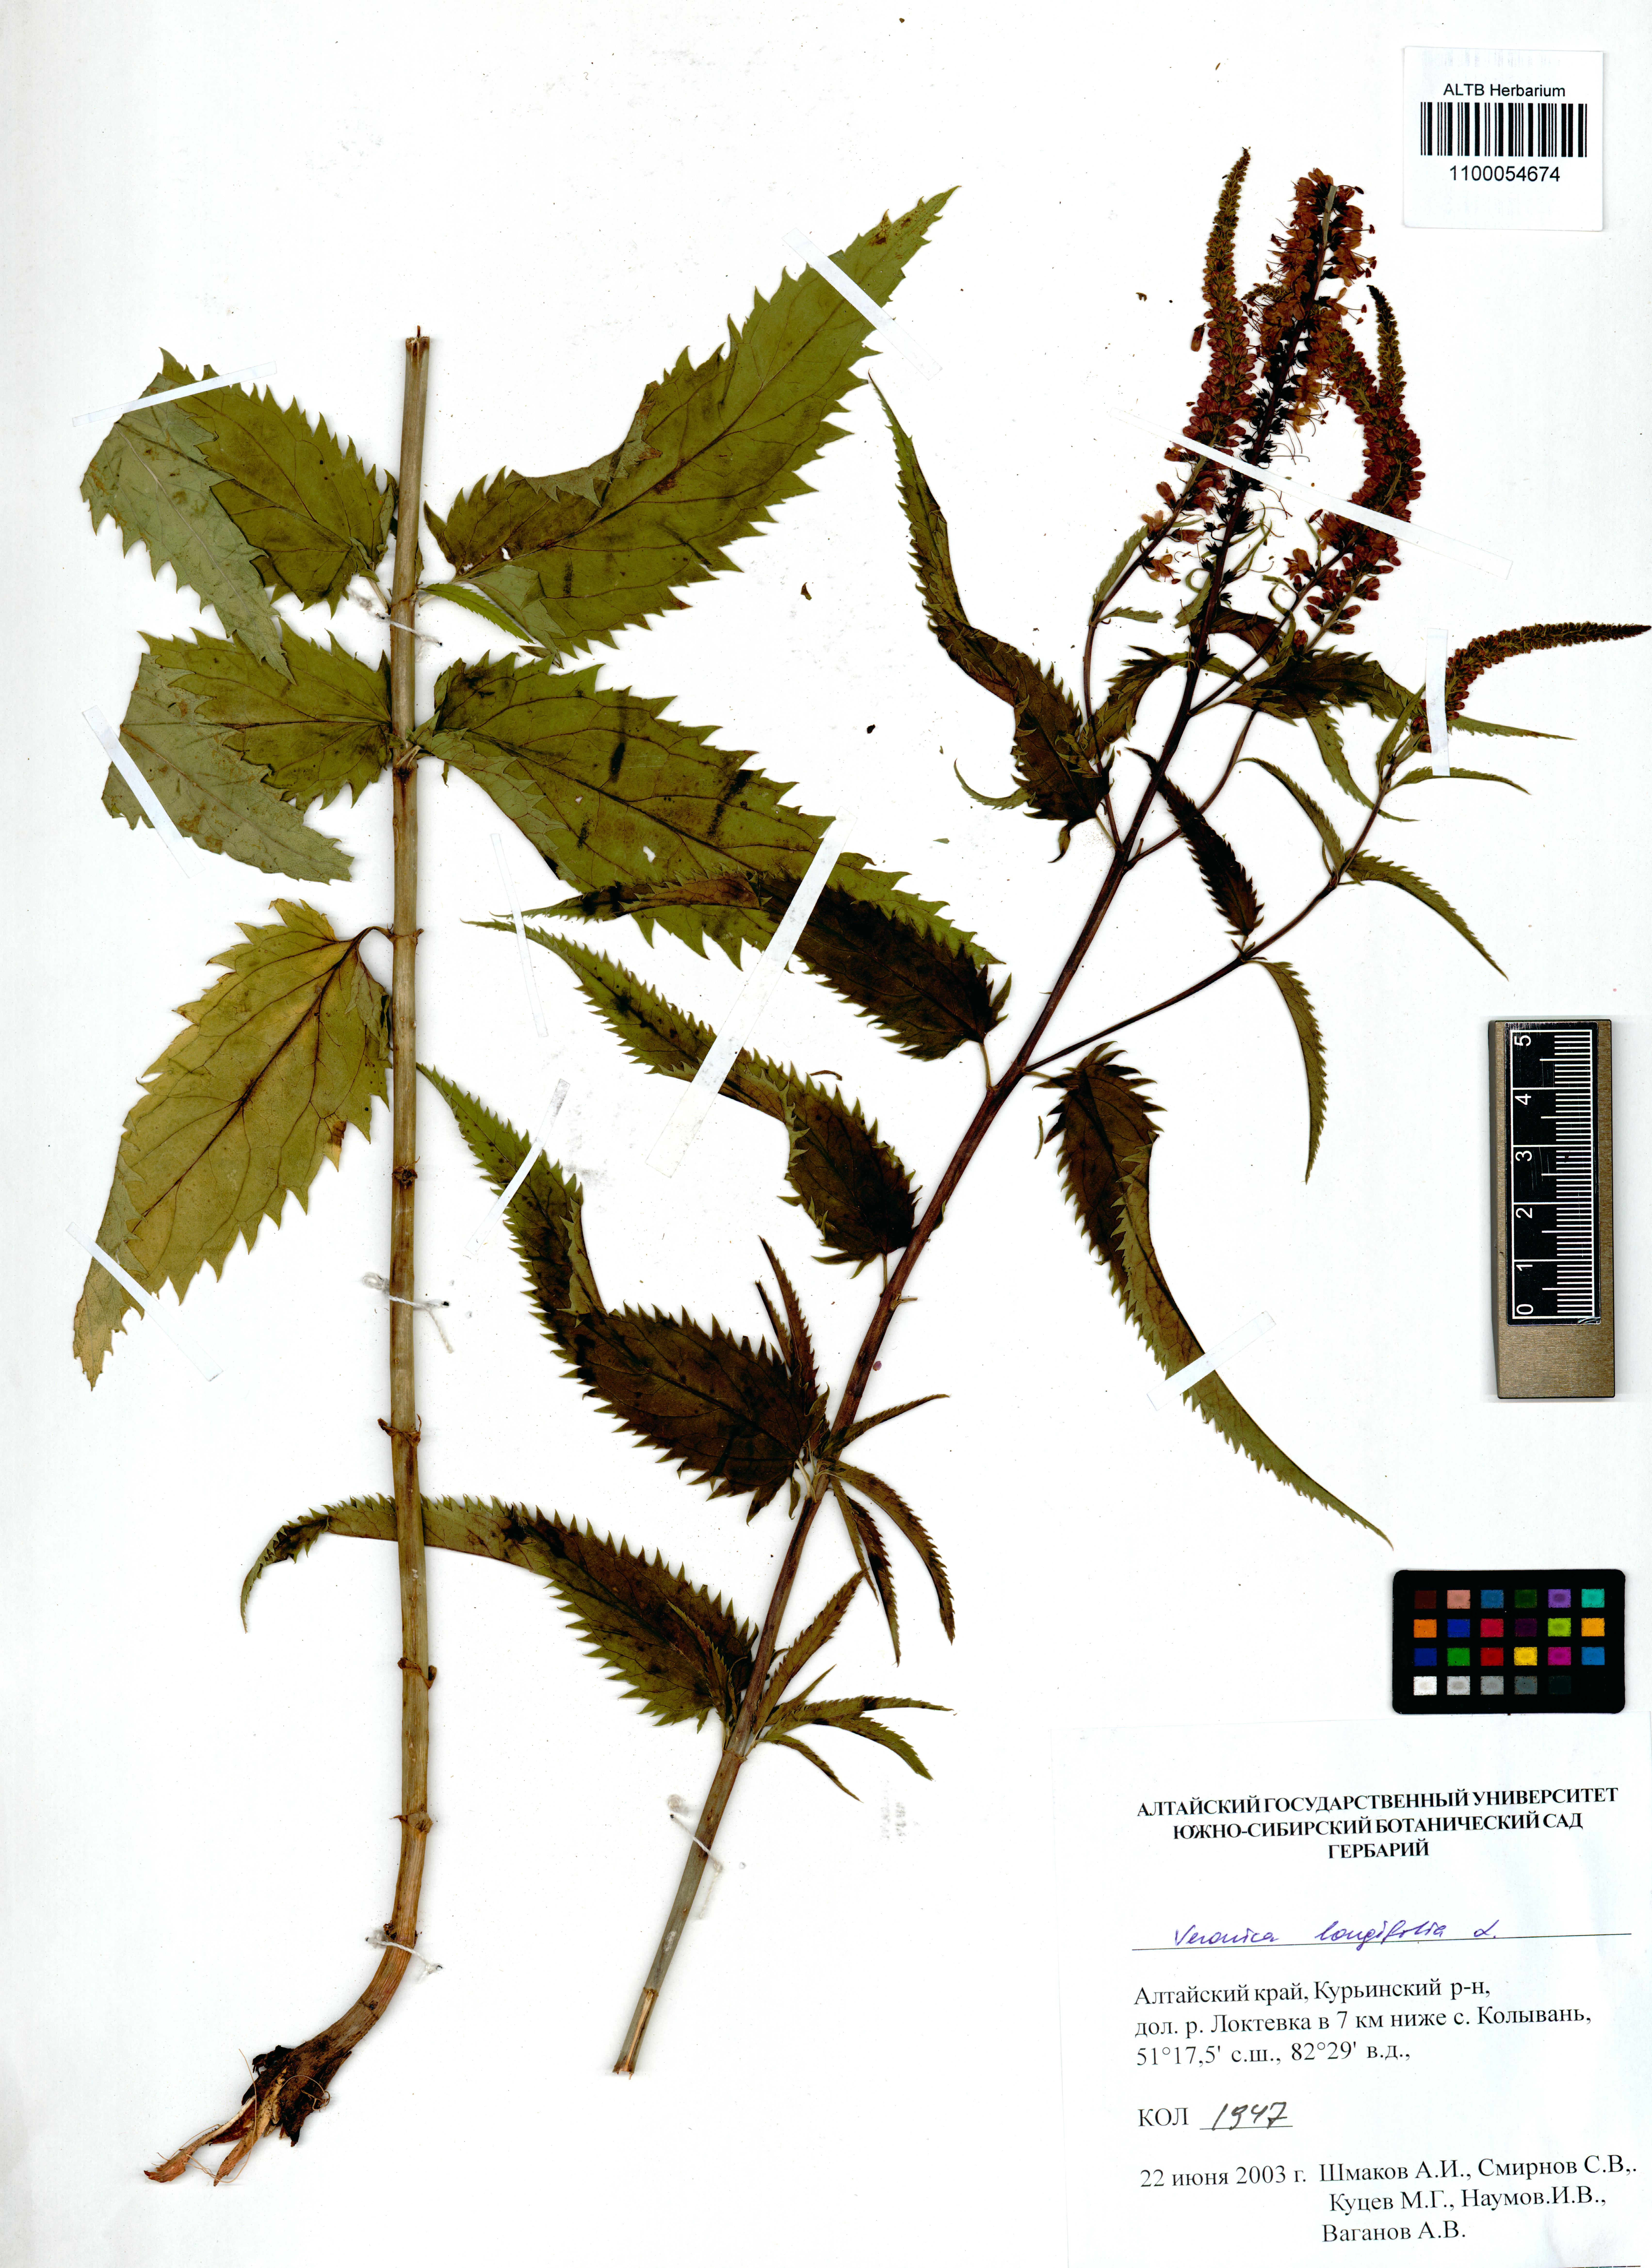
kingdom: Plantae
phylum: Tracheophyta
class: Magnoliopsida
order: Lamiales
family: Plantaginaceae
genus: Veronica
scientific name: Veronica longifolia
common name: Garden speedwell
